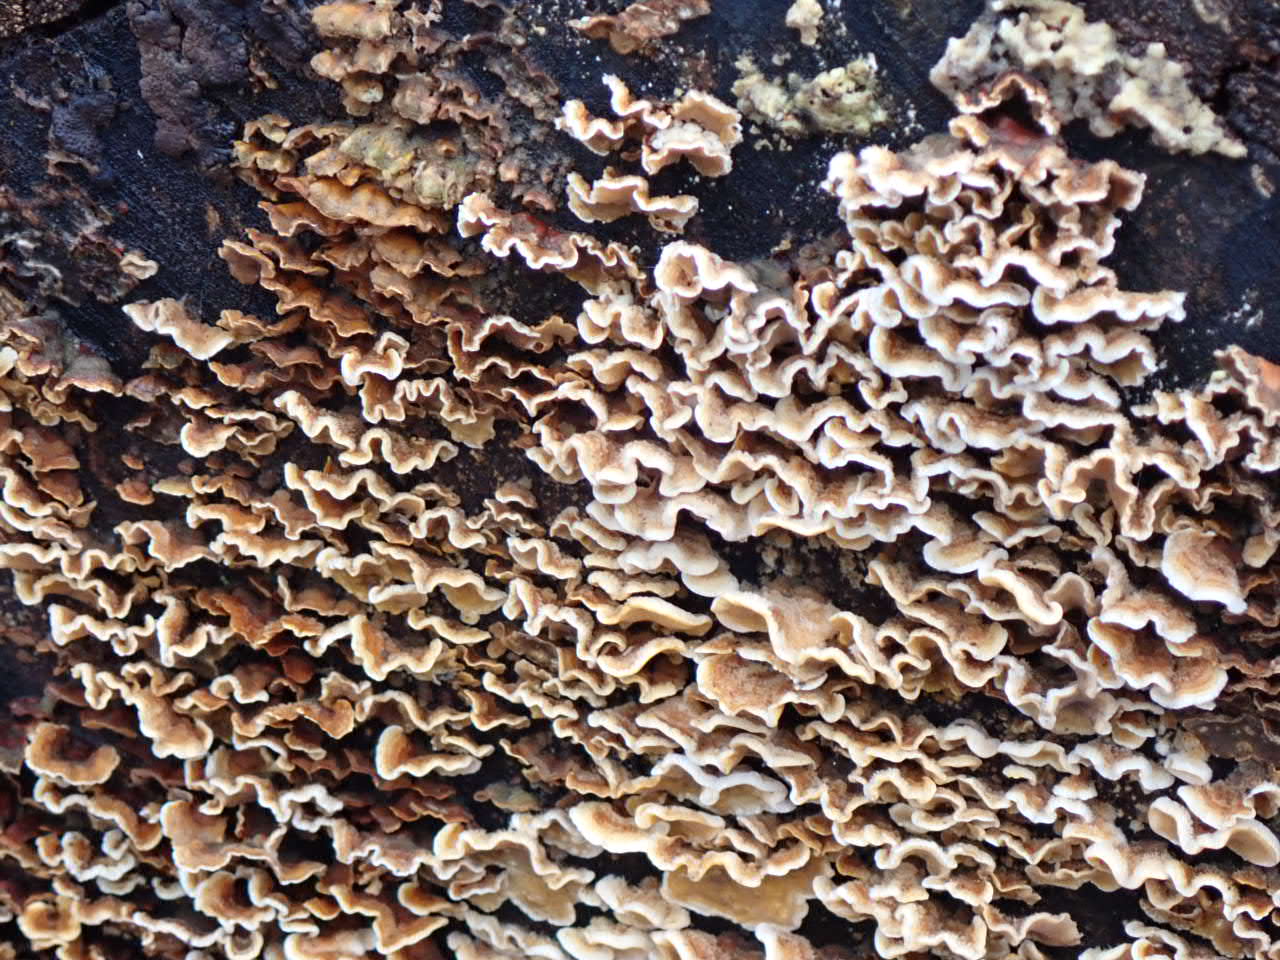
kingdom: Fungi
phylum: Basidiomycota
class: Agaricomycetes
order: Russulales
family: Stereaceae
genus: Stereum
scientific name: Stereum hirsutum
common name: håret lædersvamp
